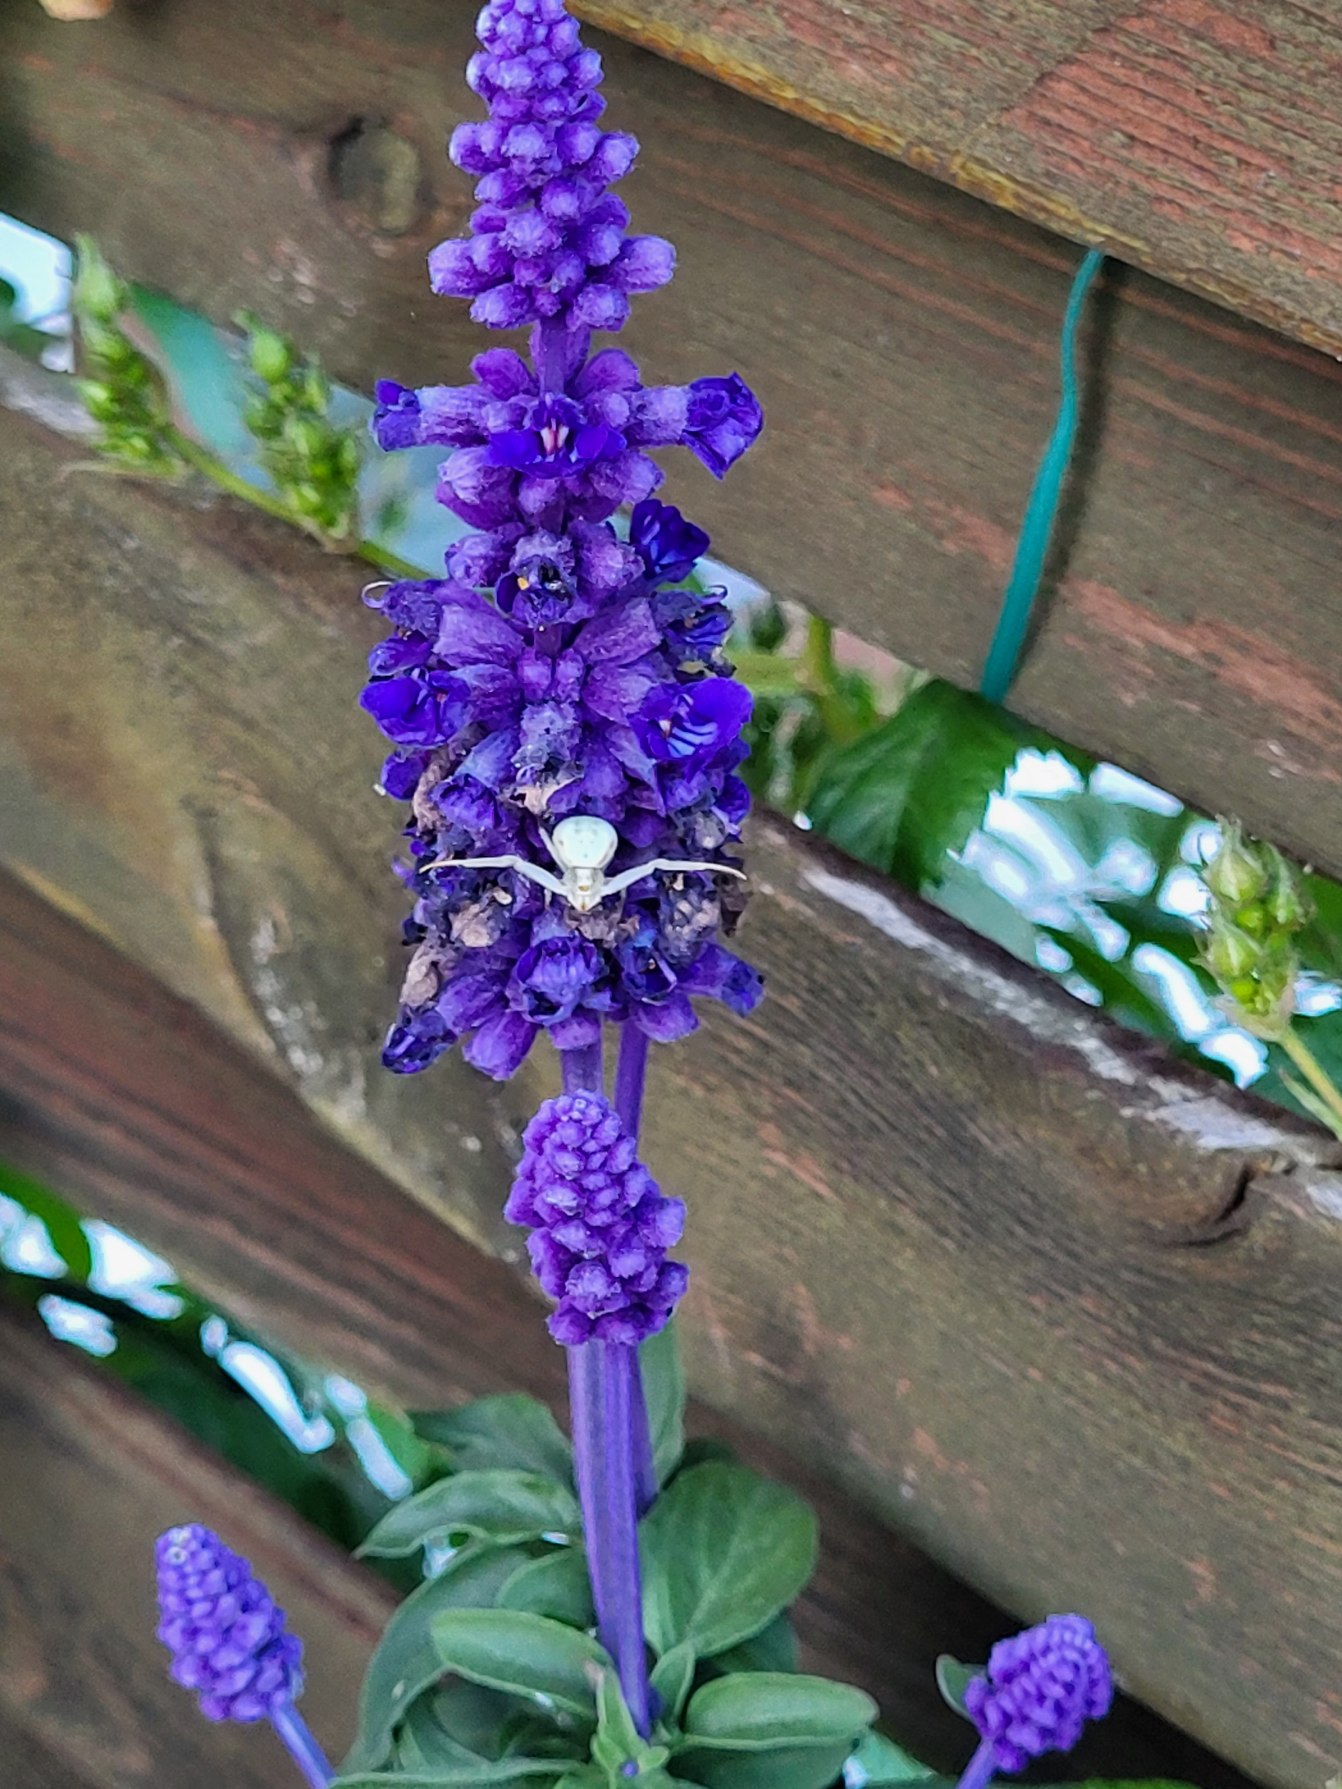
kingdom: Animalia
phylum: Arthropoda
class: Arachnida
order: Araneae
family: Thomisidae
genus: Misumena
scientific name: Misumena vatia
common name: Kamæleonedderkop
